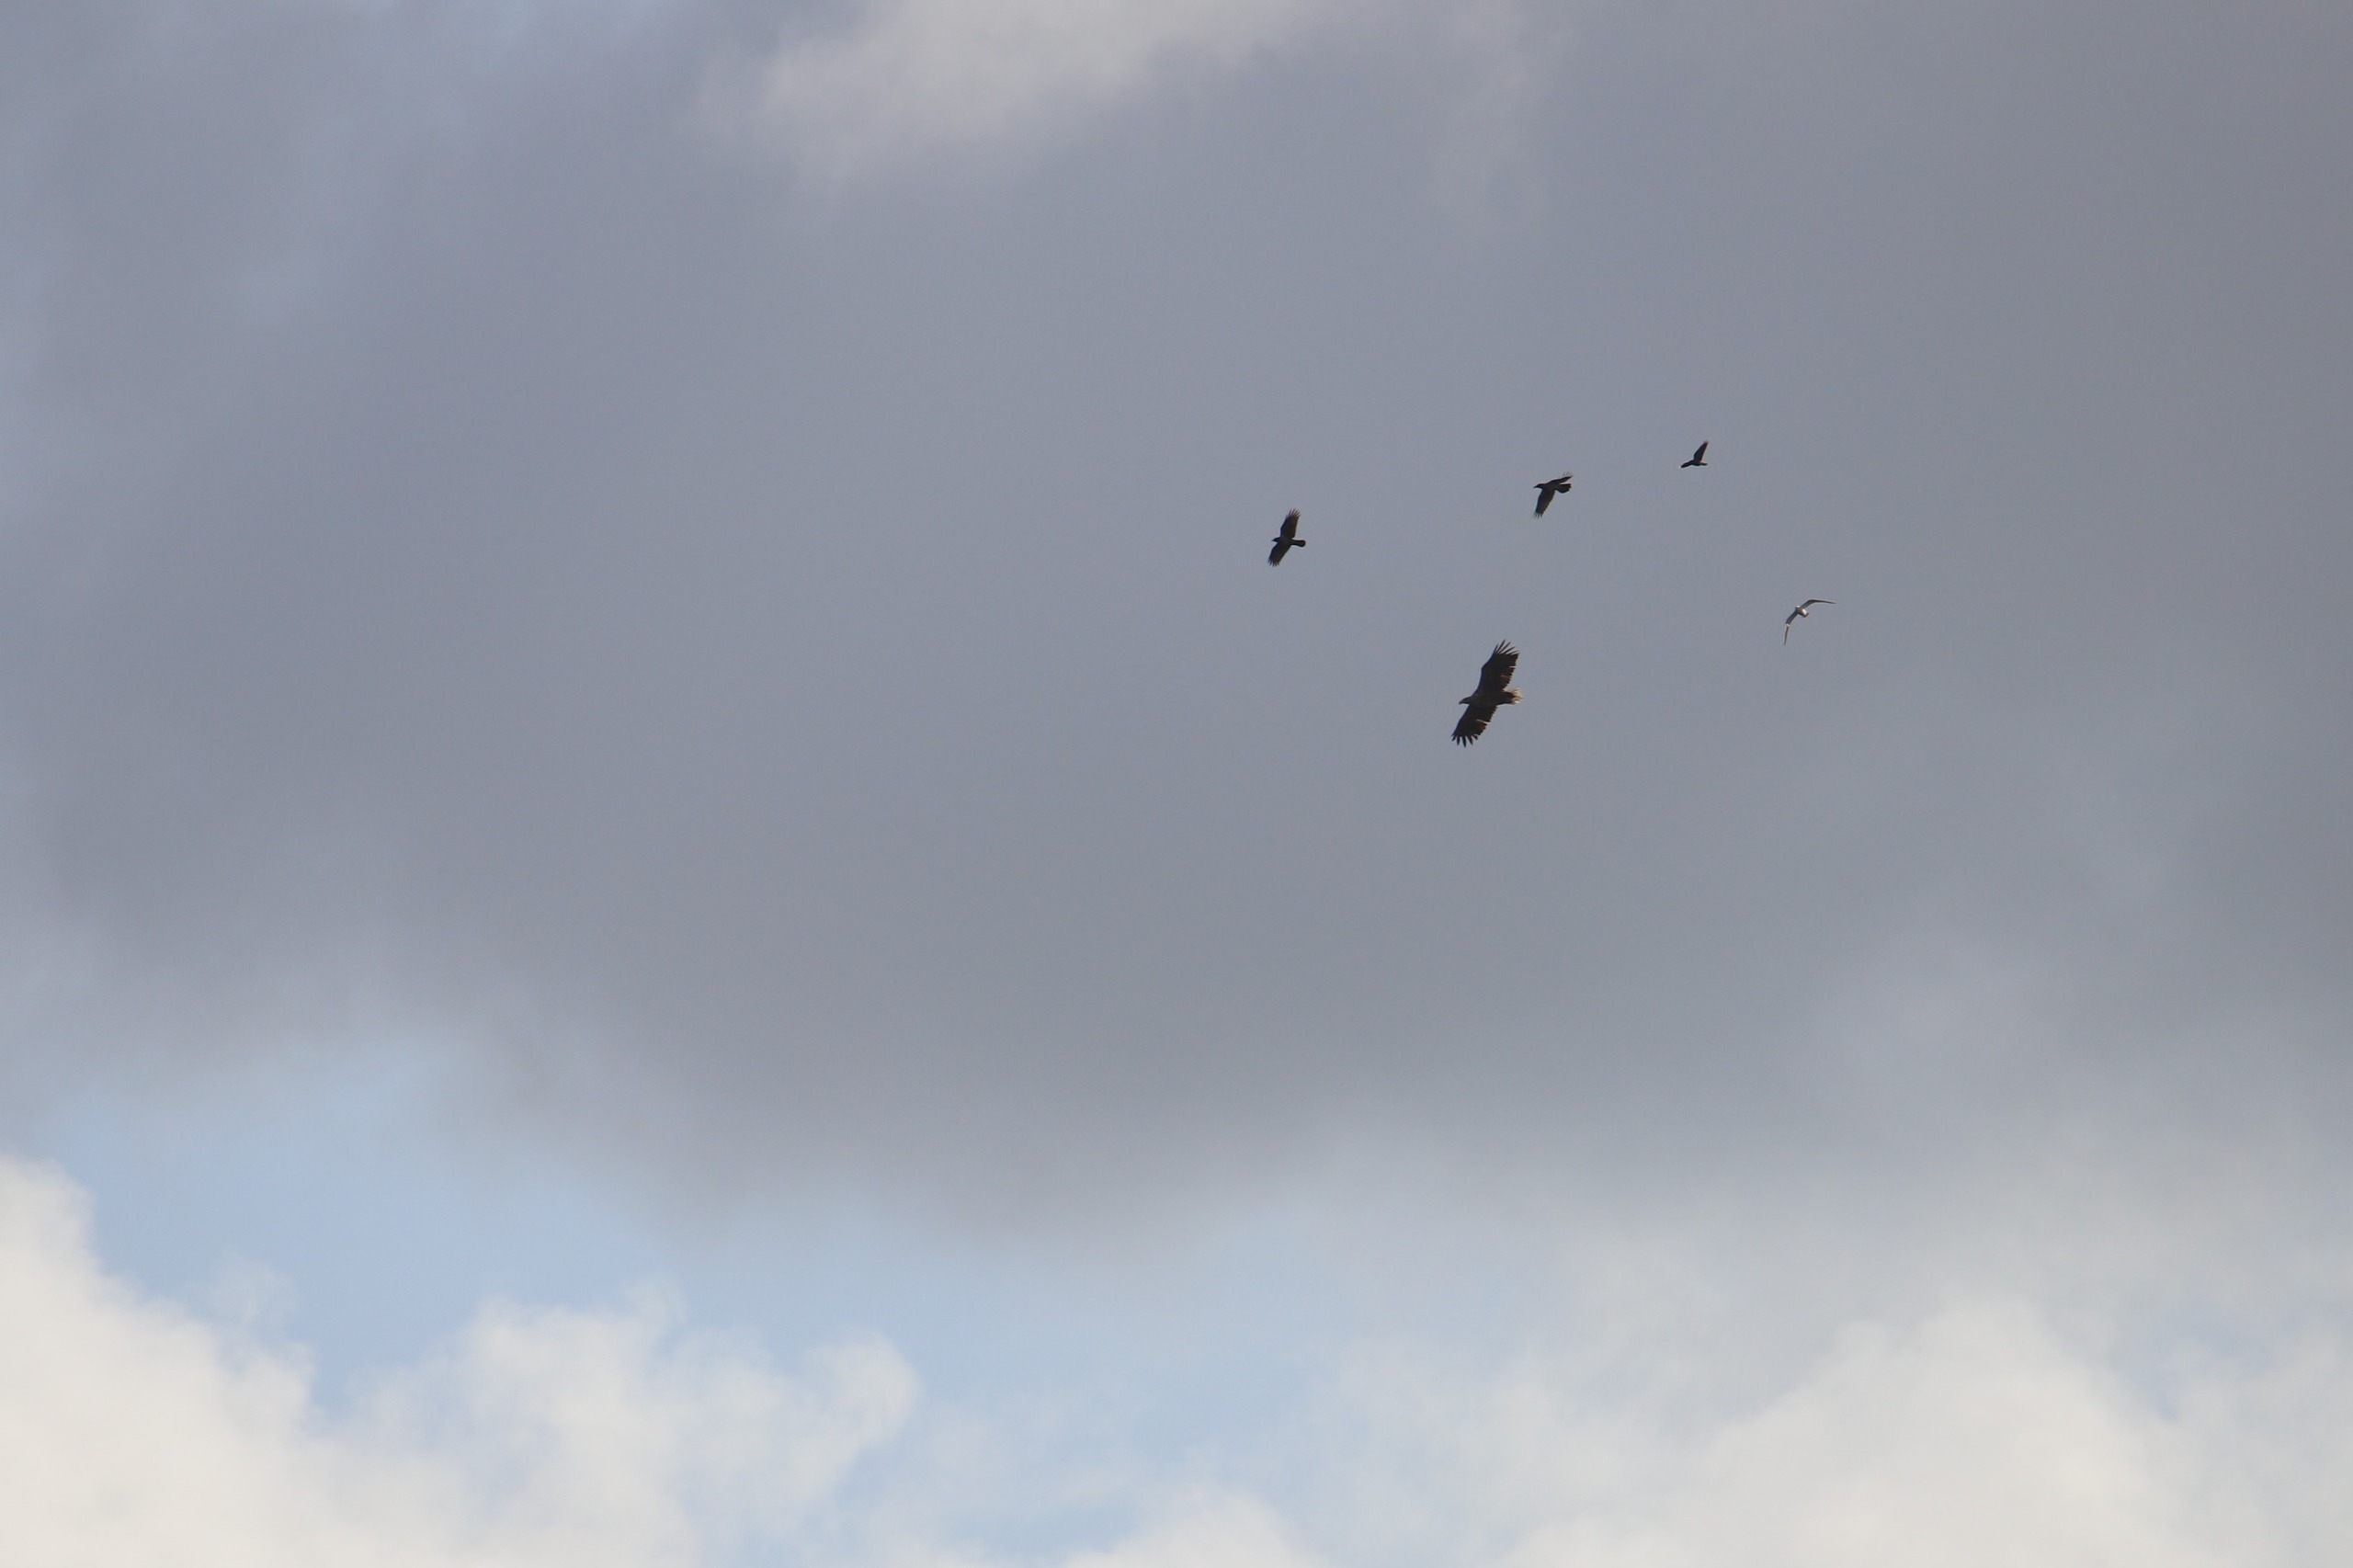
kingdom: Animalia
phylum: Chordata
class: Aves
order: Accipitriformes
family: Accipitridae
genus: Haliaeetus
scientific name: Haliaeetus albicilla
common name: Havørn
